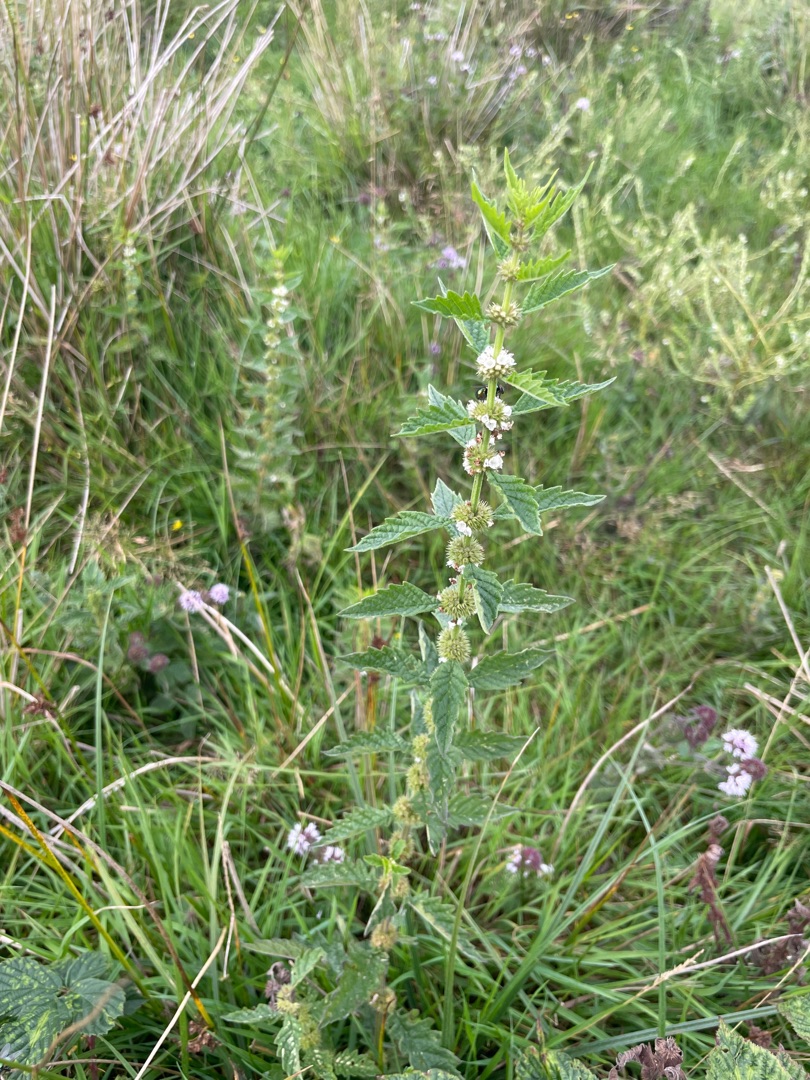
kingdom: Plantae
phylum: Tracheophyta
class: Magnoliopsida
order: Lamiales
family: Lamiaceae
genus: Lycopus
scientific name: Lycopus europaeus
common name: Sværtevæld
